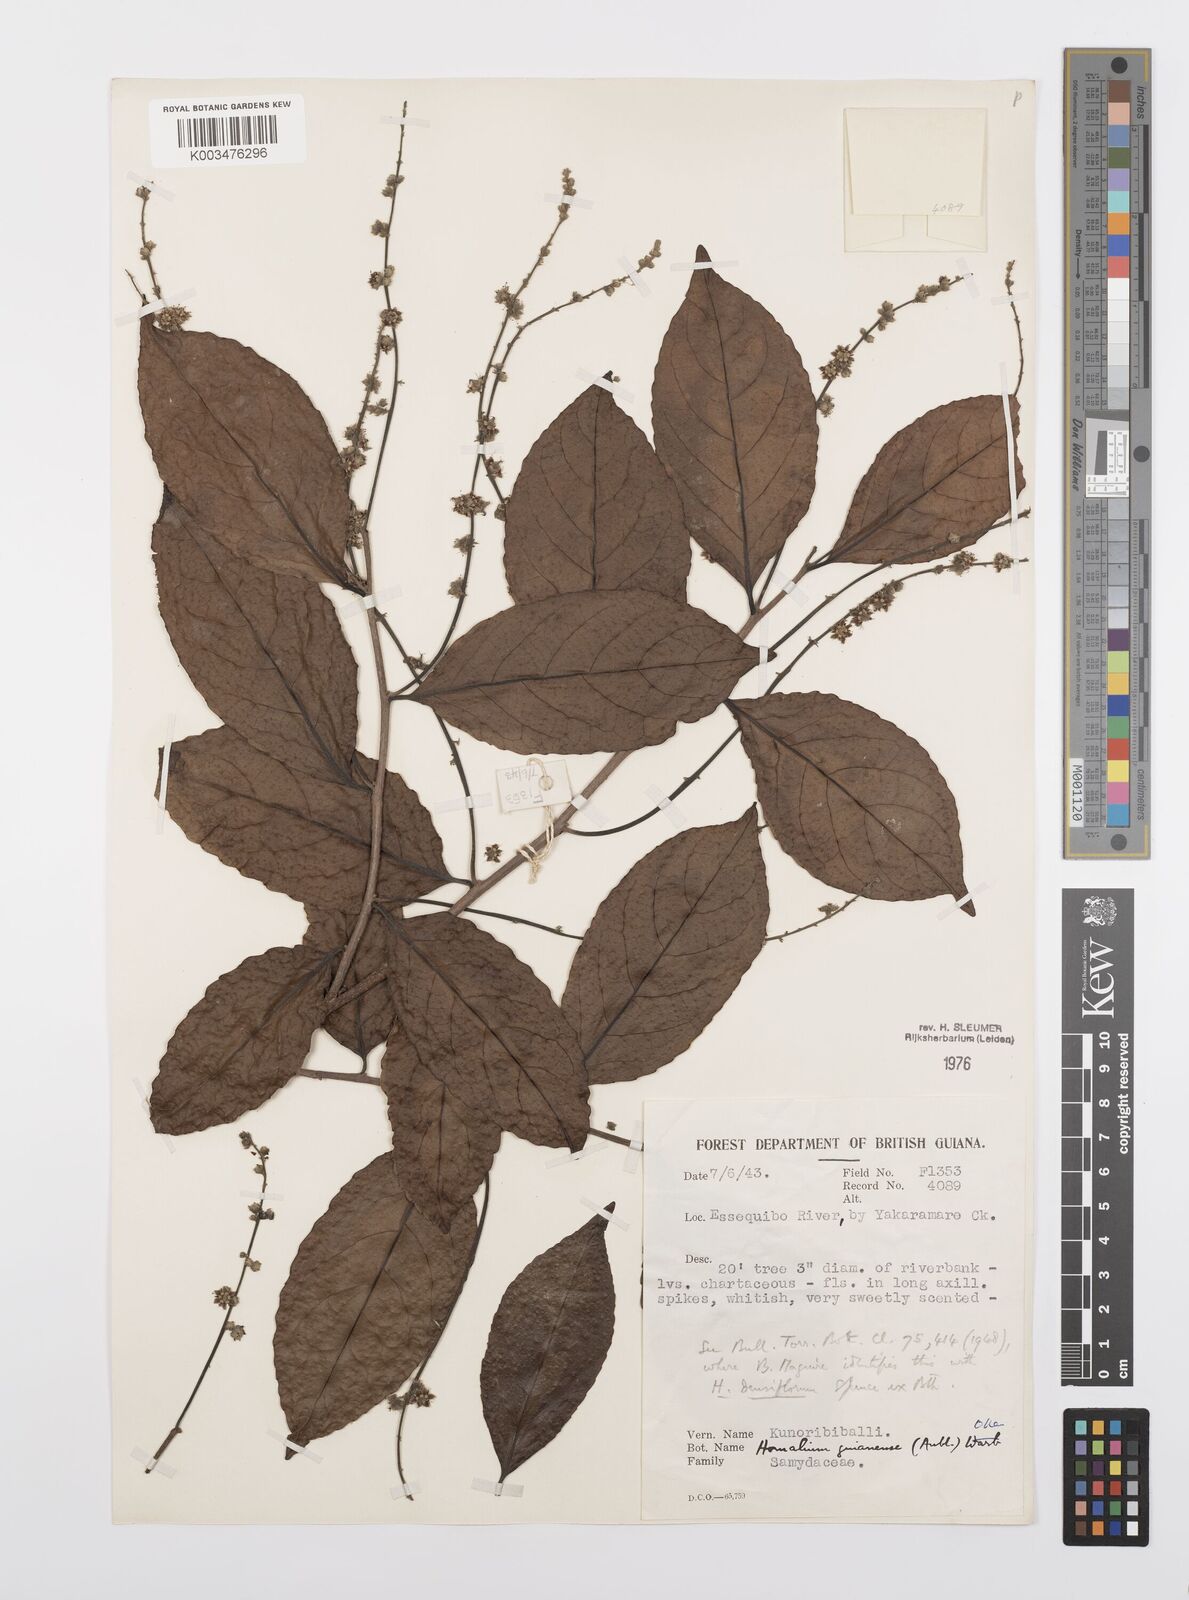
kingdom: Plantae
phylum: Tracheophyta
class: Magnoliopsida
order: Malpighiales
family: Salicaceae
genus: Homalium
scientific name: Homalium guianense
